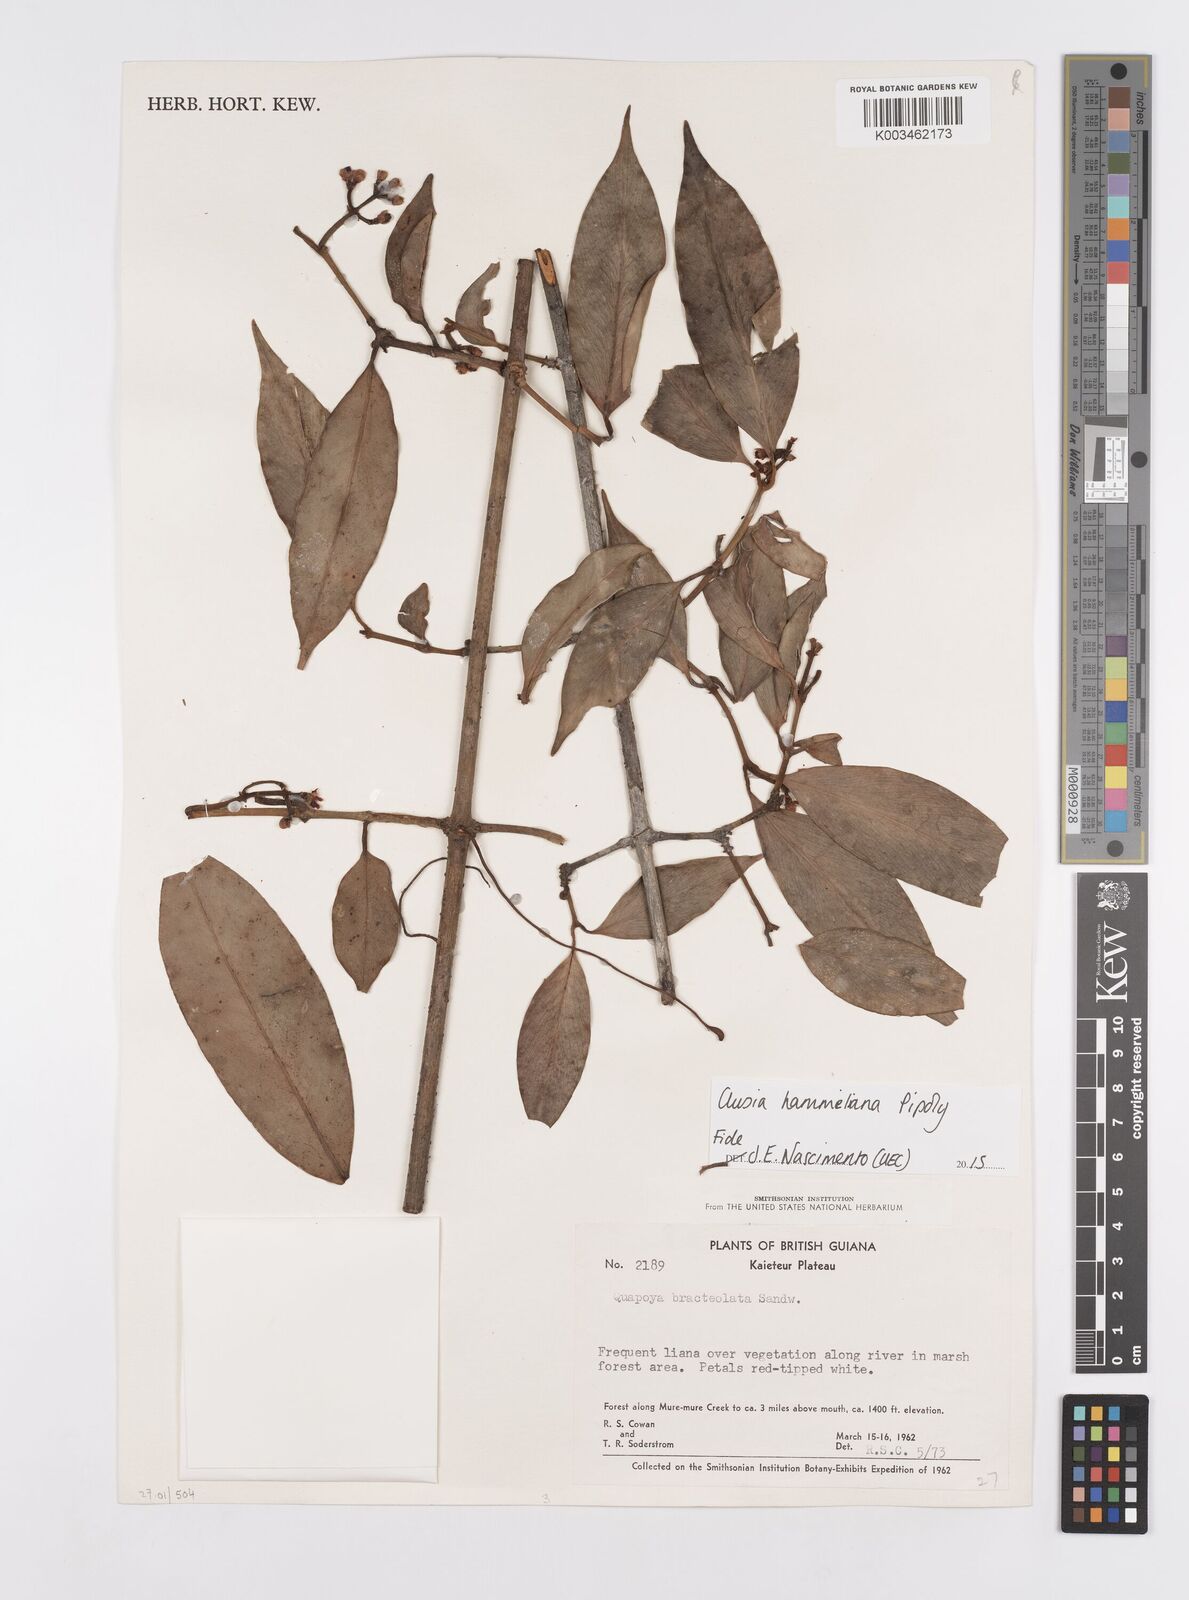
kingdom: Plantae
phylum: Tracheophyta
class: Magnoliopsida
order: Malpighiales
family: Clusiaceae
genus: Clusia
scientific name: Clusia hammeliana
